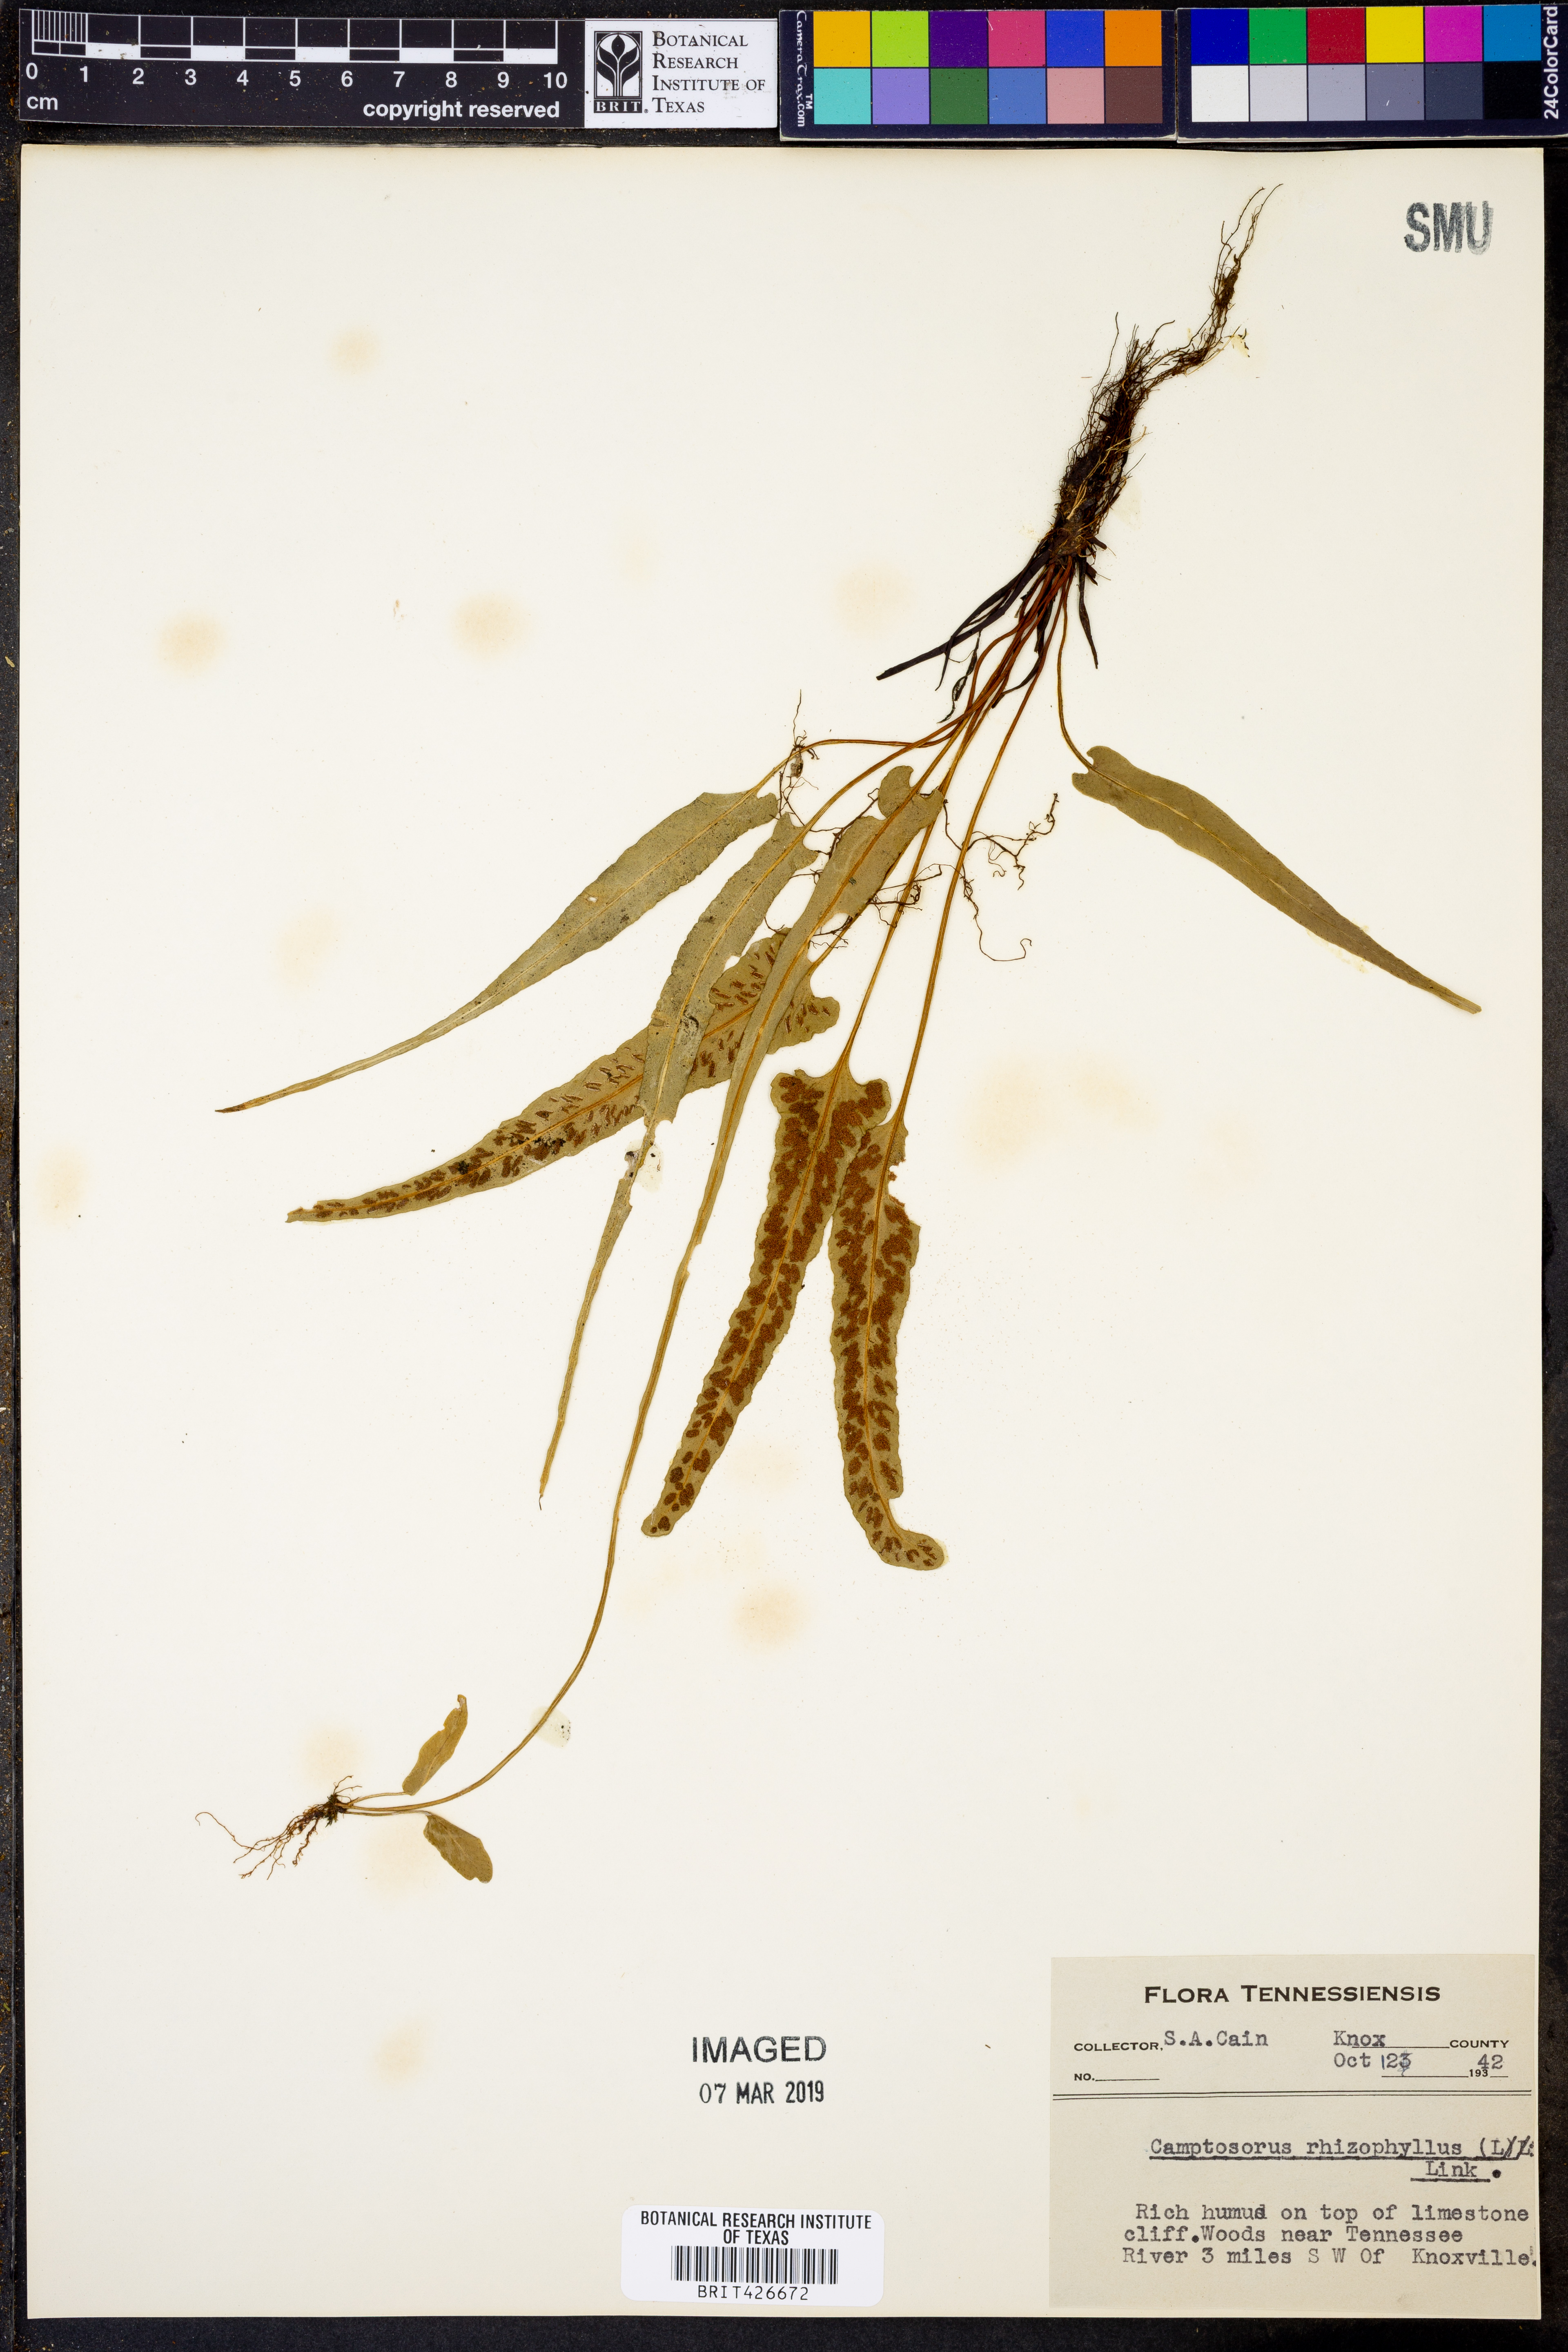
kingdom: Plantae
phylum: Tracheophyta
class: Polypodiopsida
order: Polypodiales
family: Aspleniaceae
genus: Asplenium
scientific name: Asplenium rhizophyllum
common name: Walking fern
